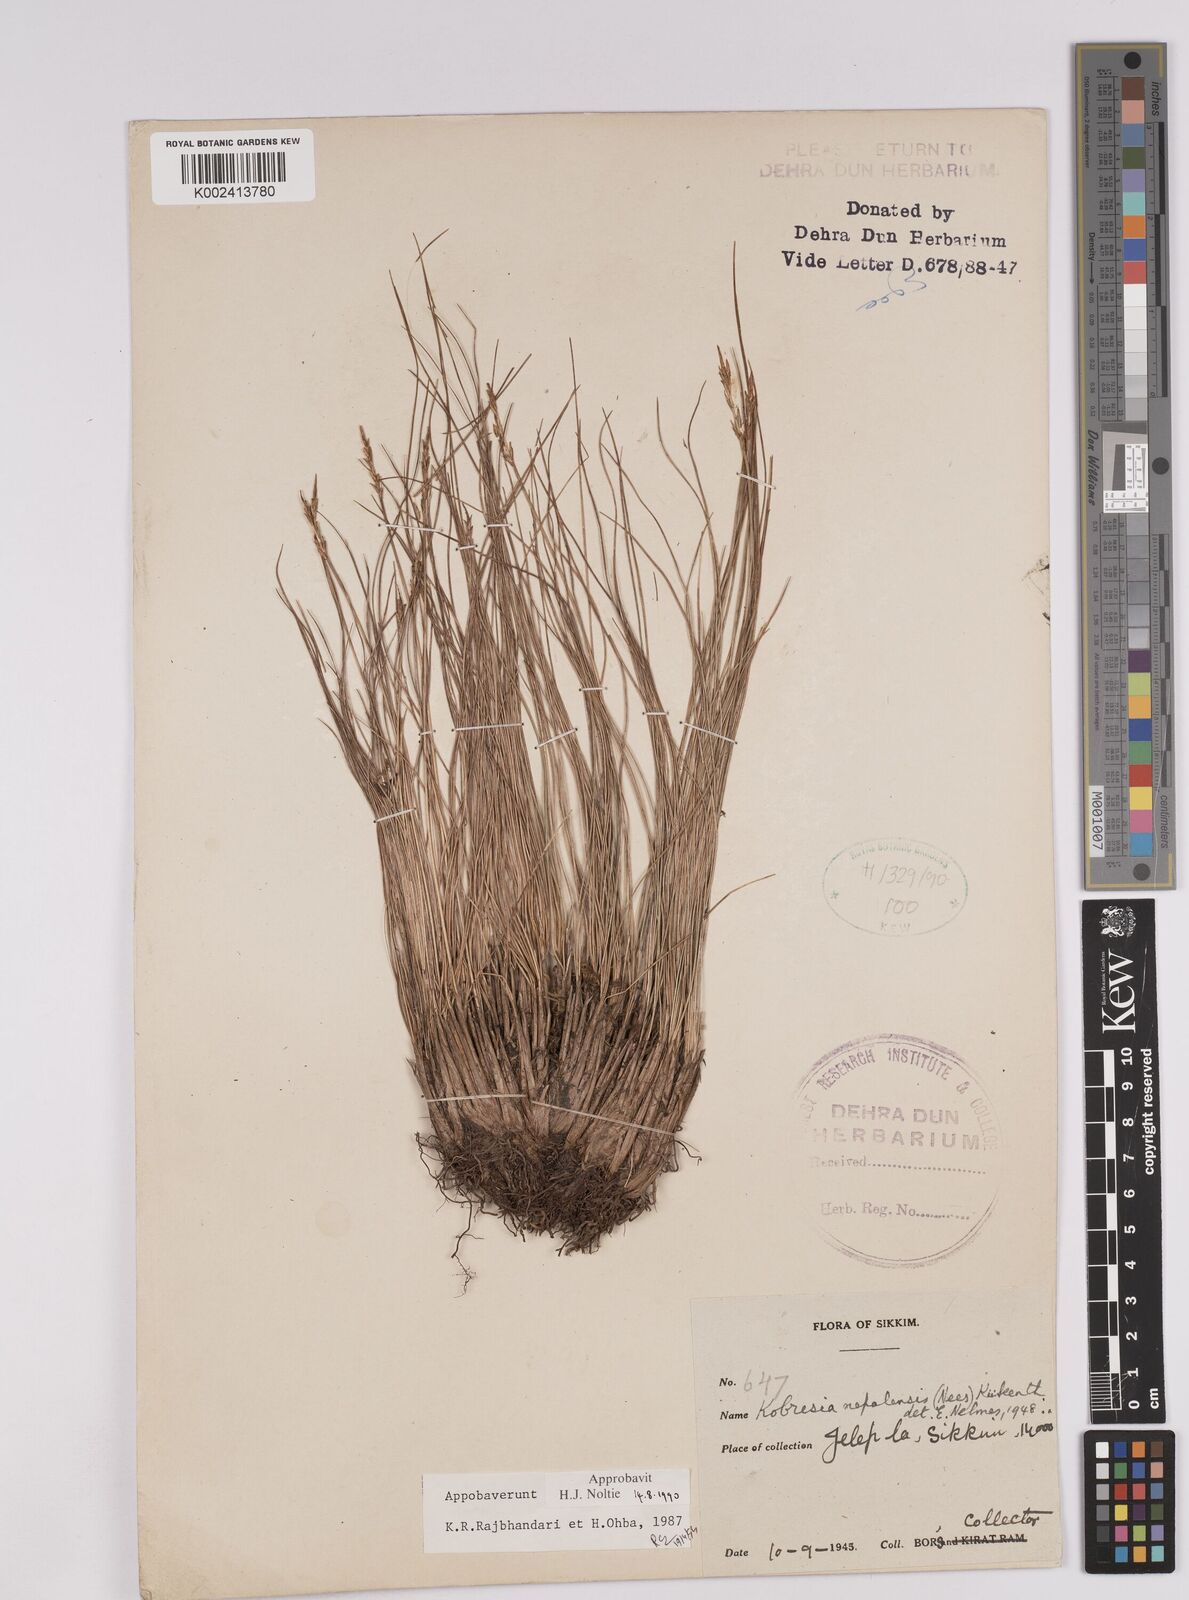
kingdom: Plantae
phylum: Tracheophyta
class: Liliopsida
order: Poales
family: Cyperaceae
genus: Carex
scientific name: Carex unciniiformis
